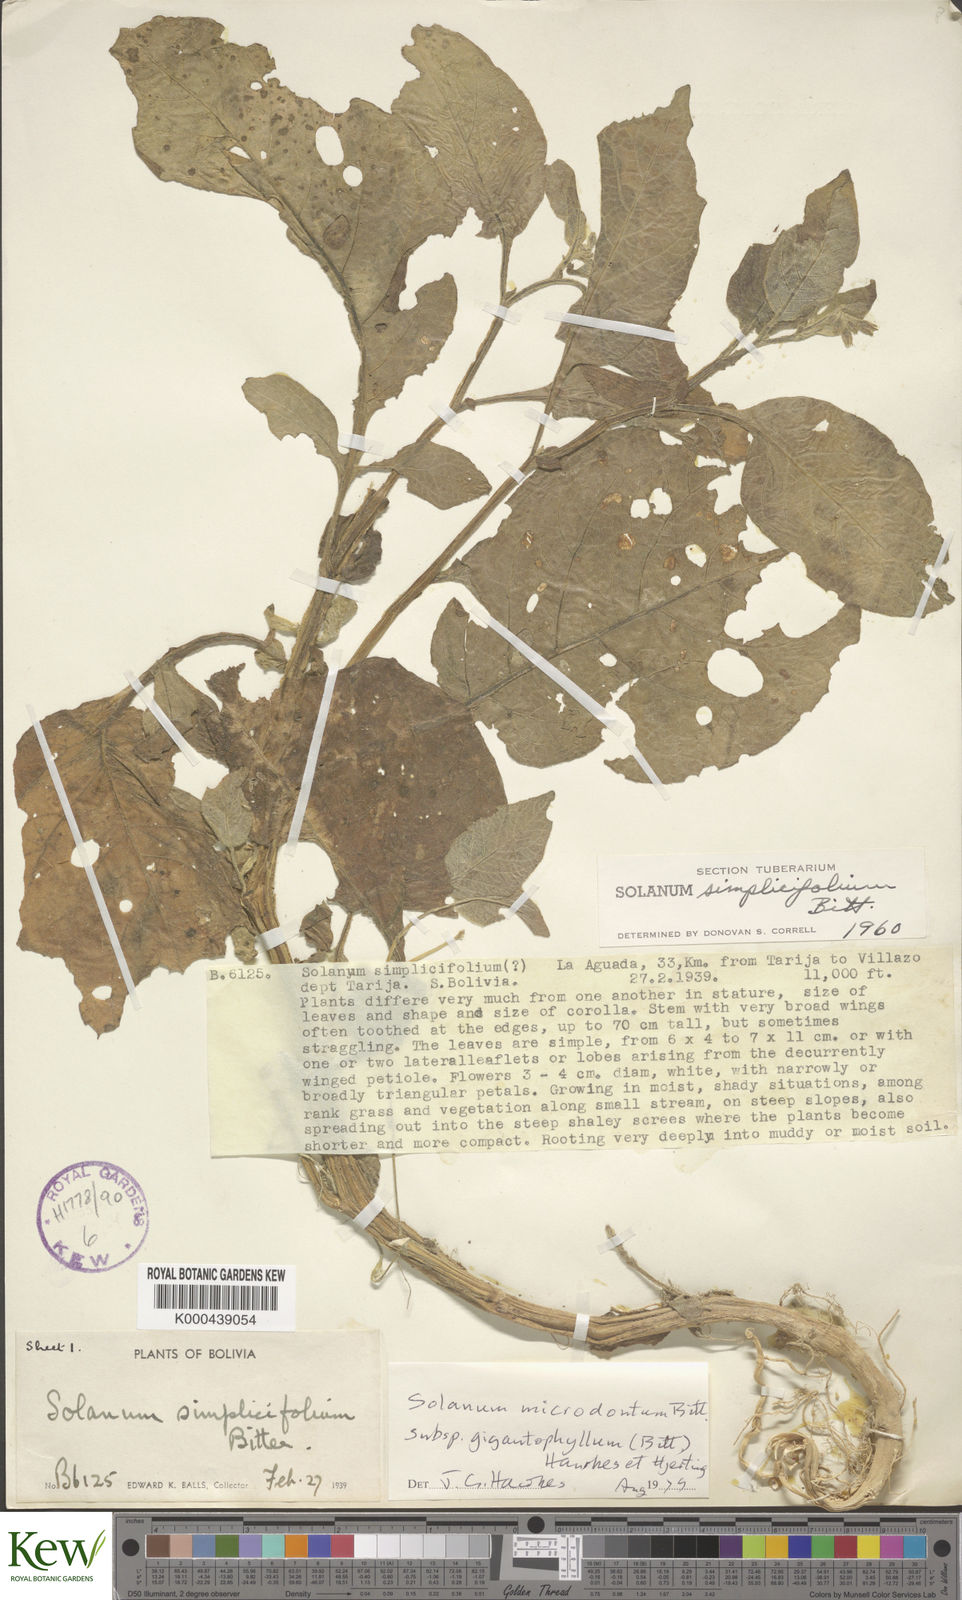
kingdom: Plantae
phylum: Tracheophyta
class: Magnoliopsida
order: Solanales
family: Solanaceae
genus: Solanum
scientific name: Solanum microdontum
